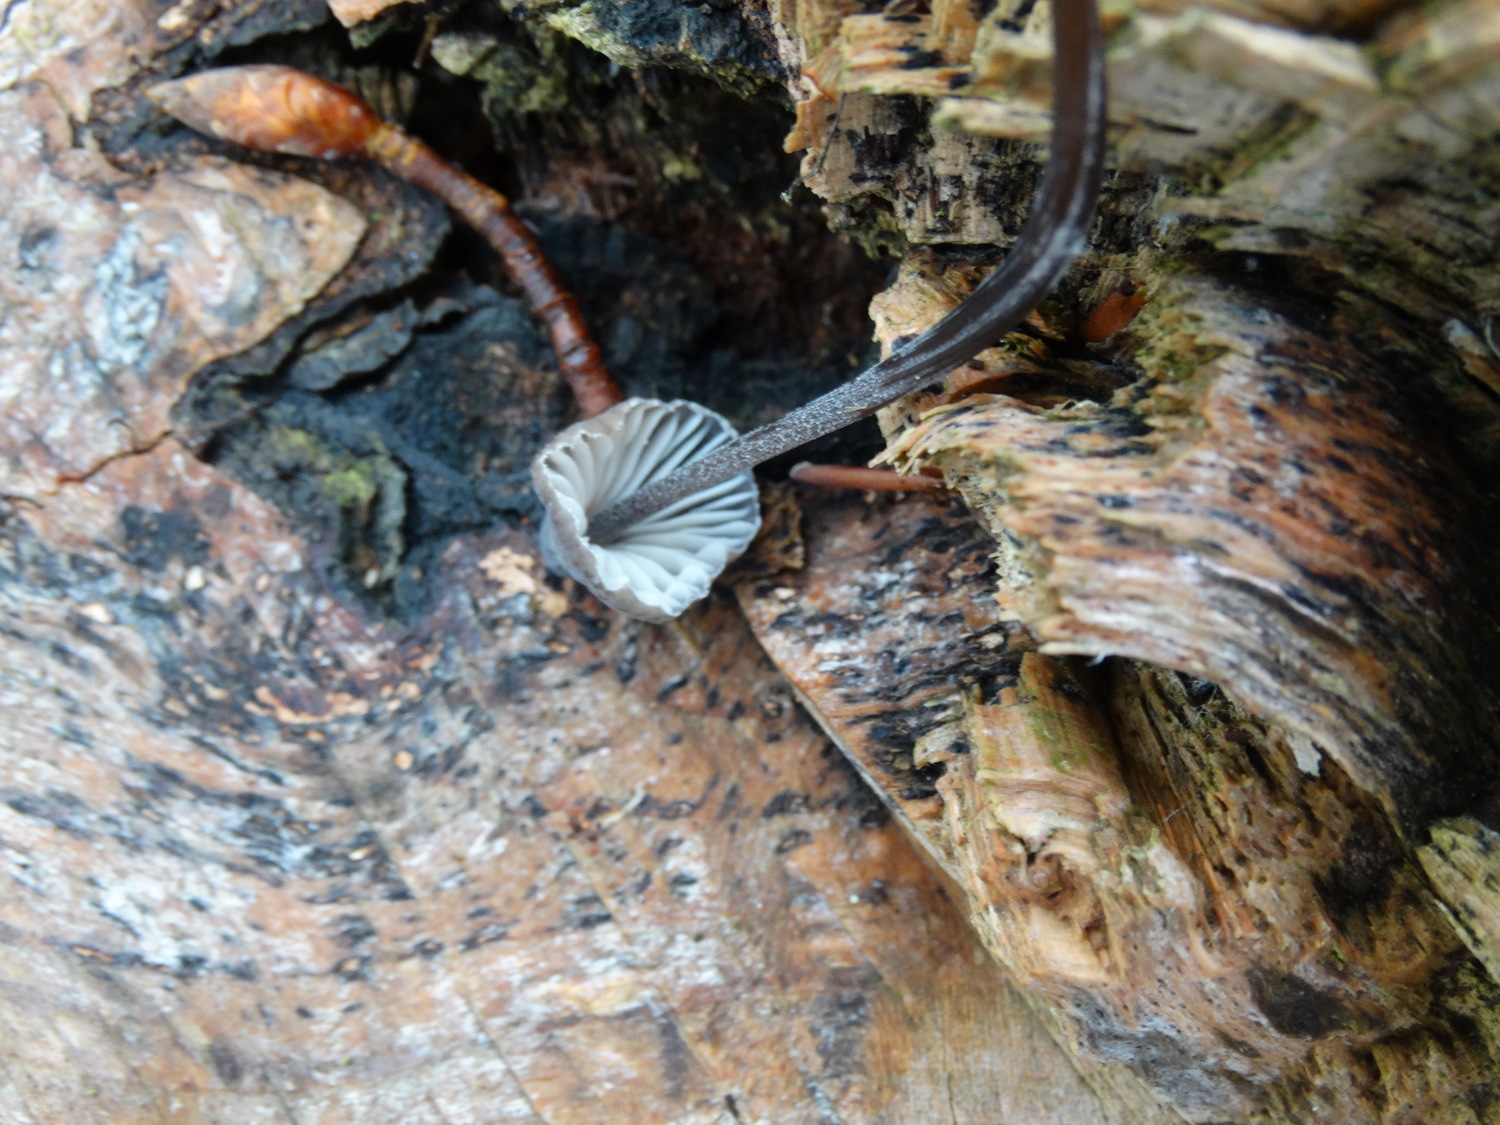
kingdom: Fungi
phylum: Basidiomycota
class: Agaricomycetes
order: Agaricales
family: Mycenaceae
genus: Mycena
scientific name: Mycena galopus
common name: hvidmælket huesvamp
